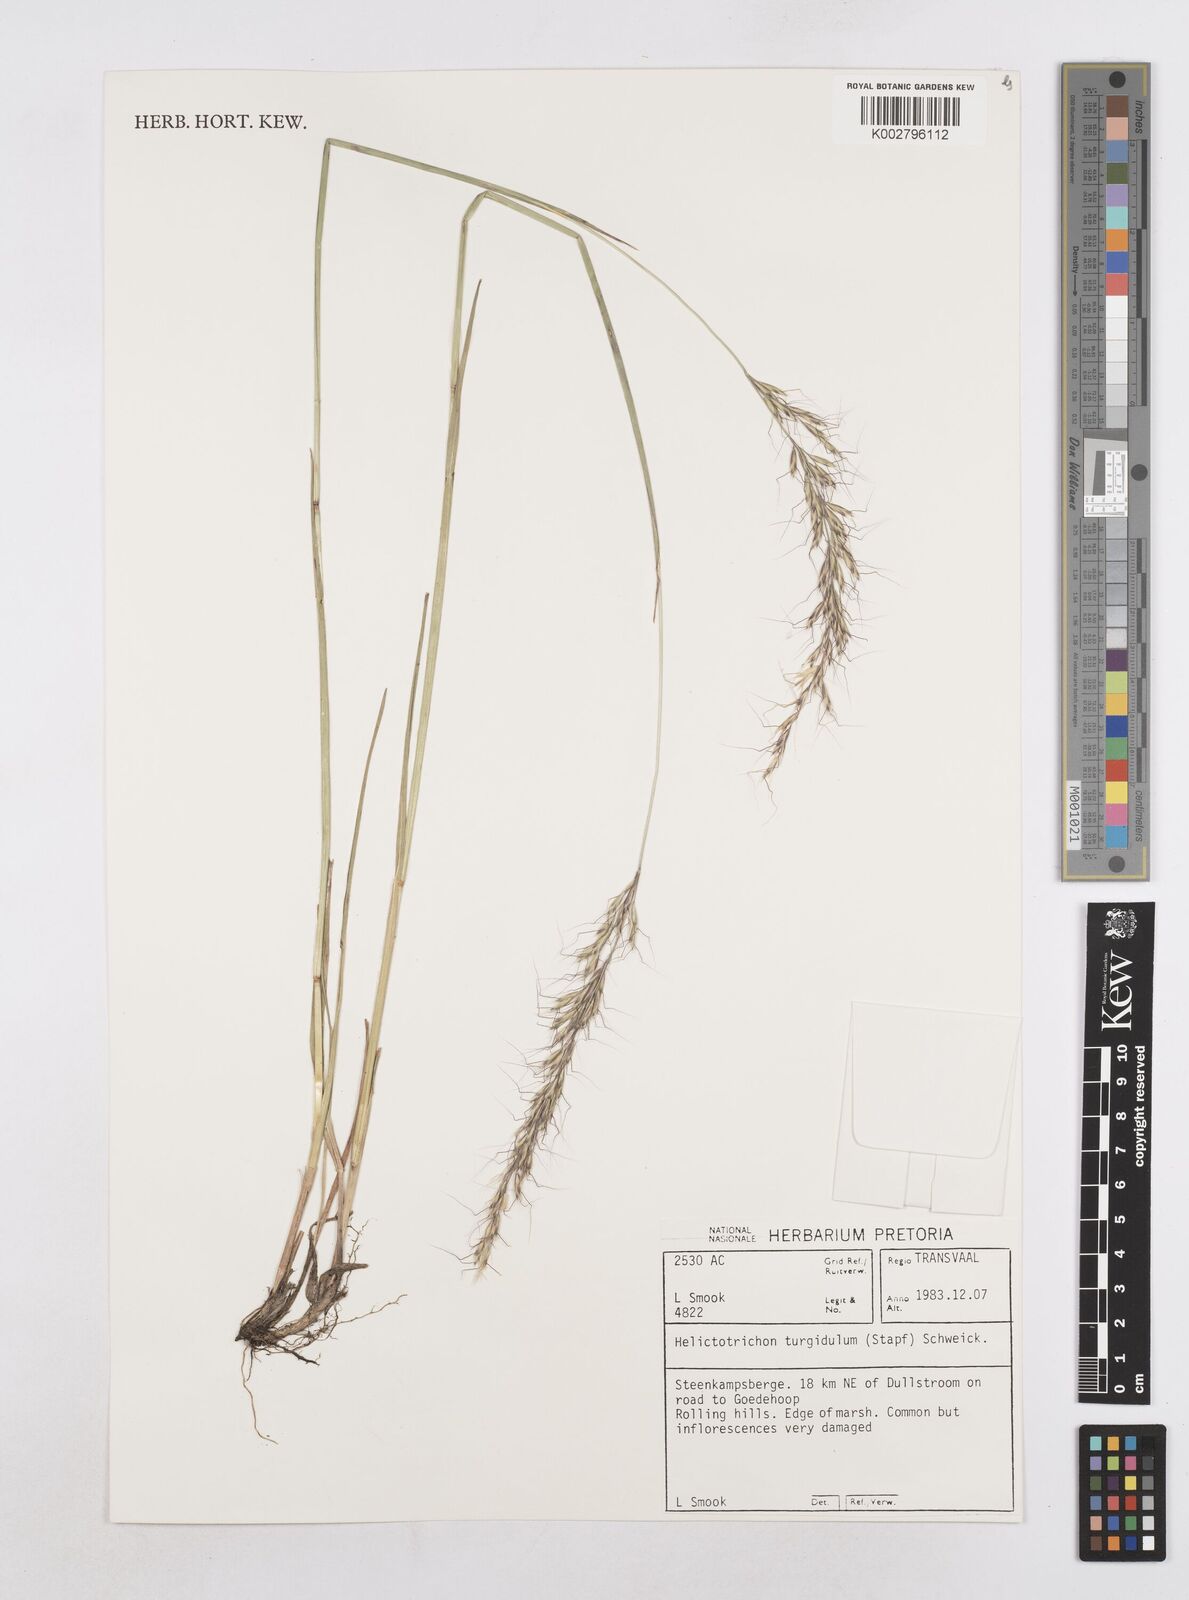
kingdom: Plantae
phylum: Tracheophyta
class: Liliopsida
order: Poales
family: Poaceae
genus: Trisetopsis
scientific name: Trisetopsis imberbis
